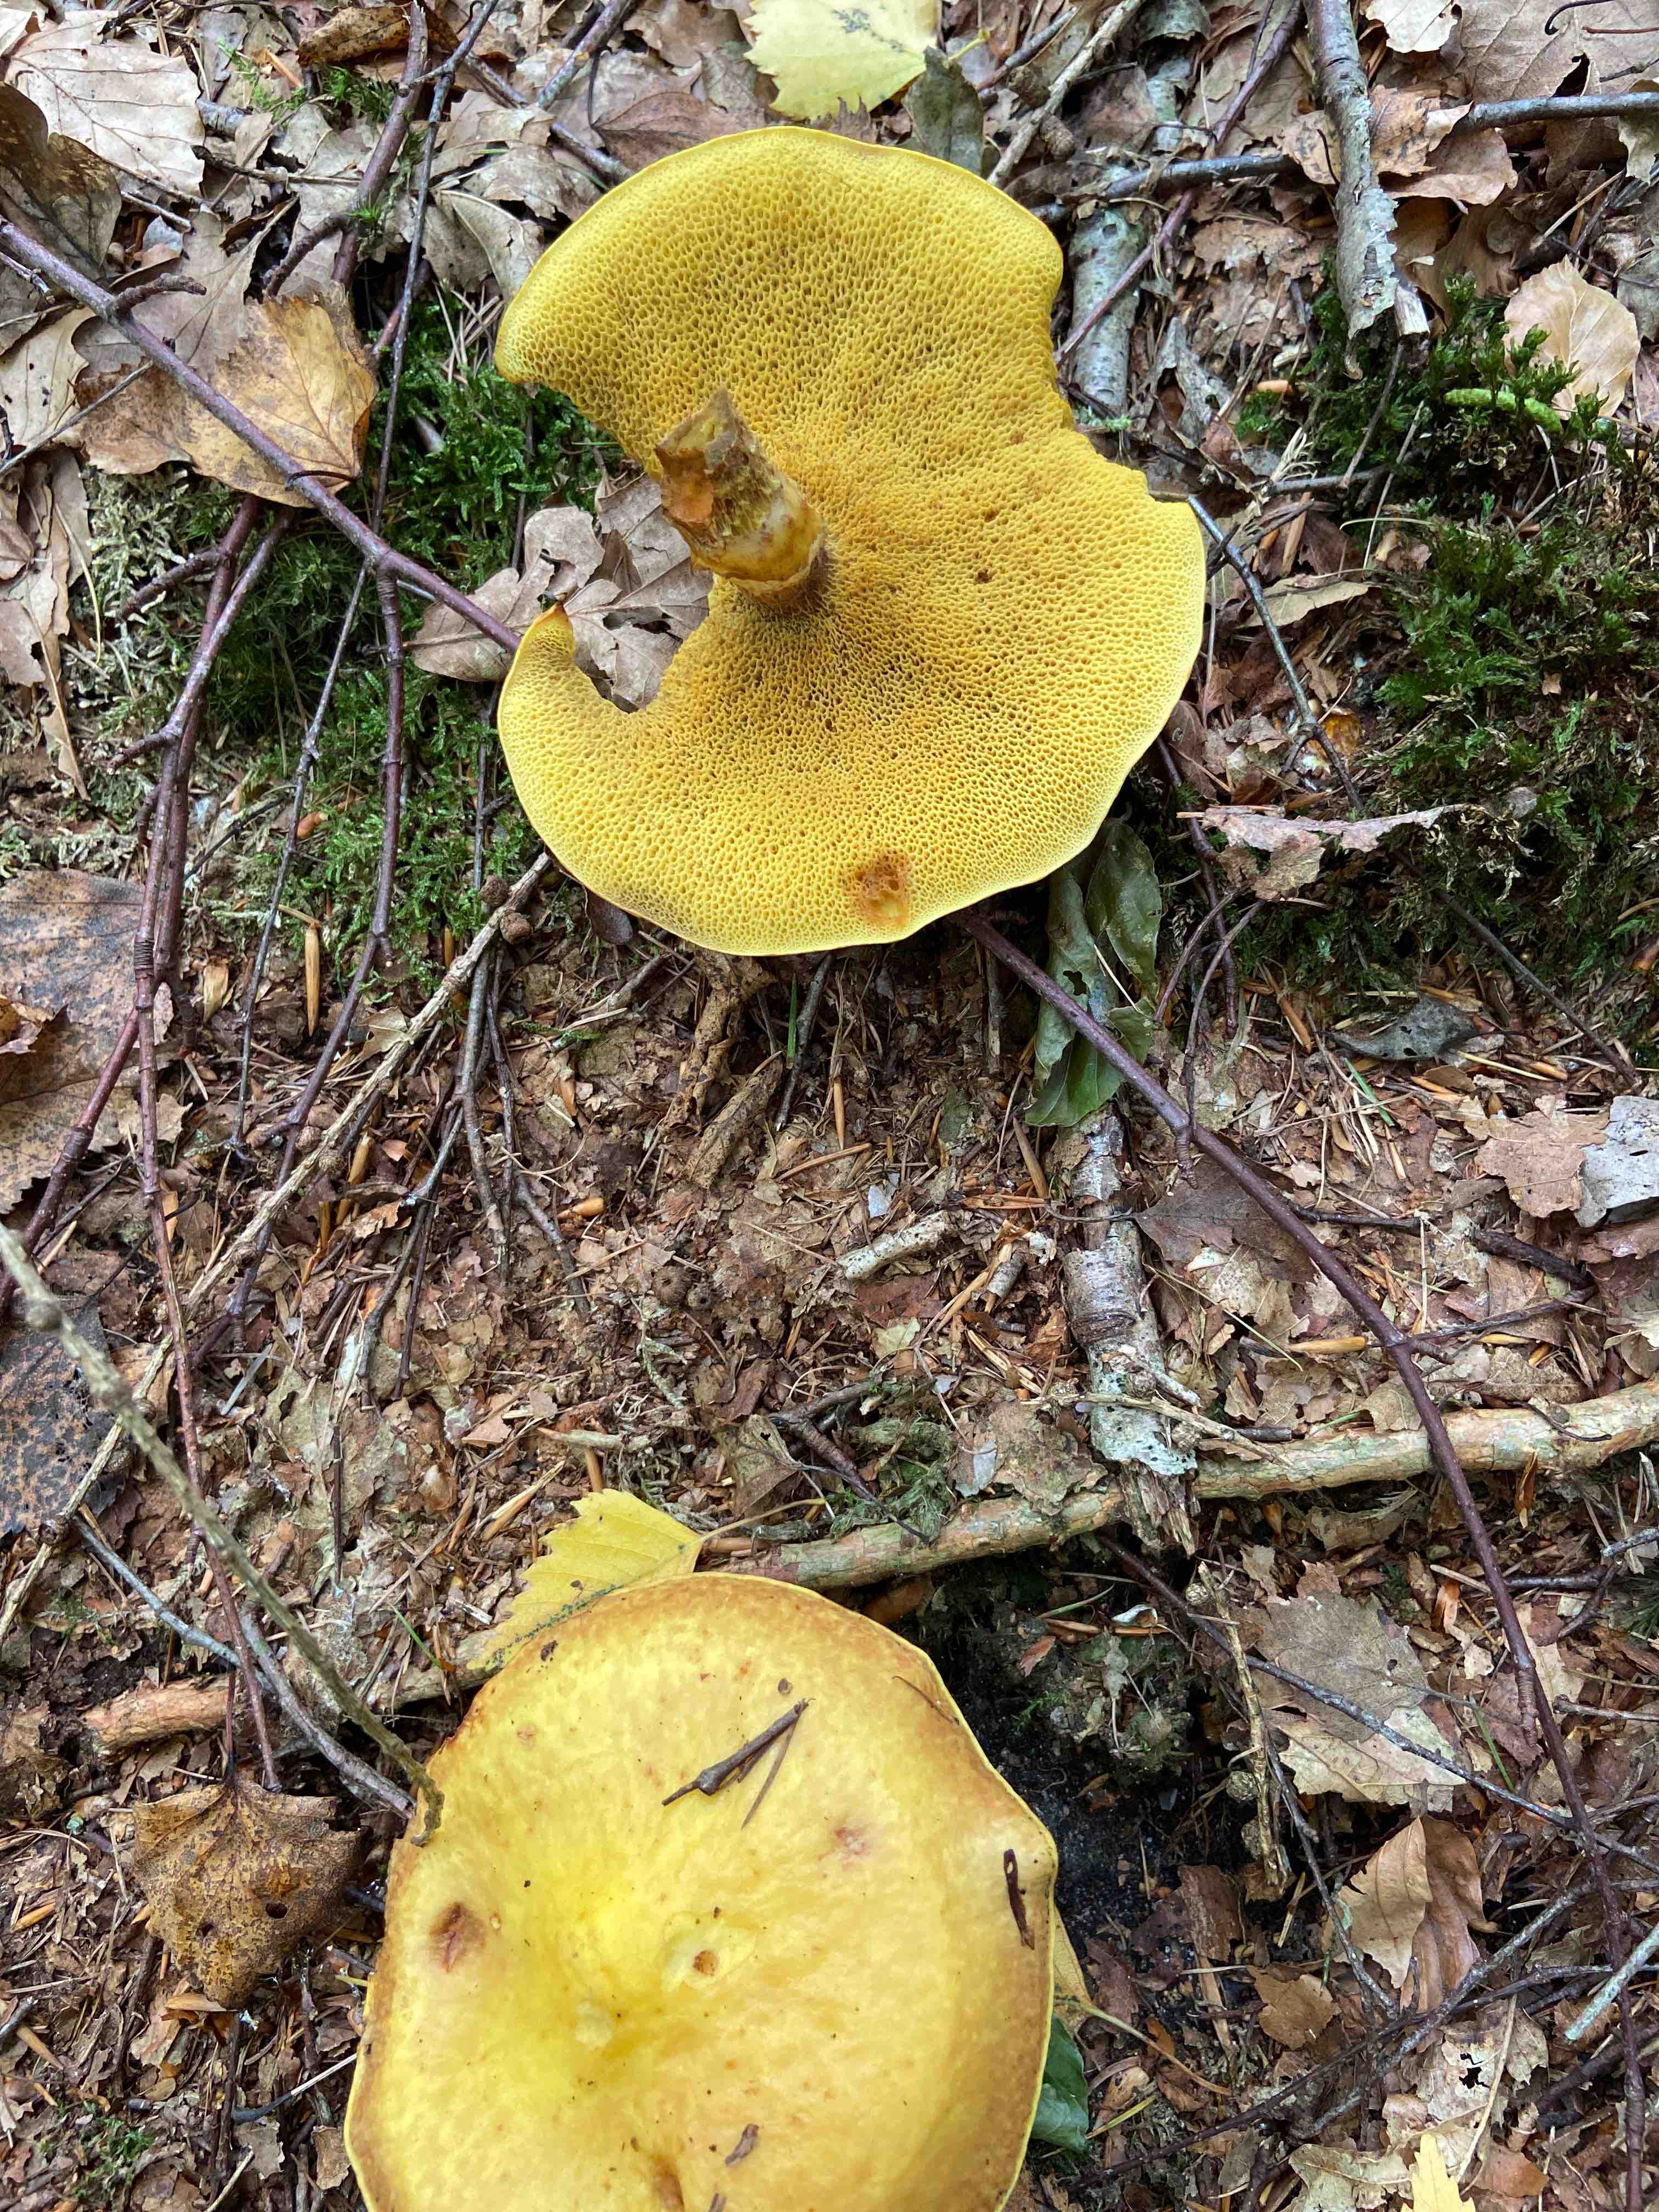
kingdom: Fungi
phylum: Basidiomycota
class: Agaricomycetes
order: Boletales
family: Suillaceae
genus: Suillus
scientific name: Suillus grevillei
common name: lærke-slimrørhat
